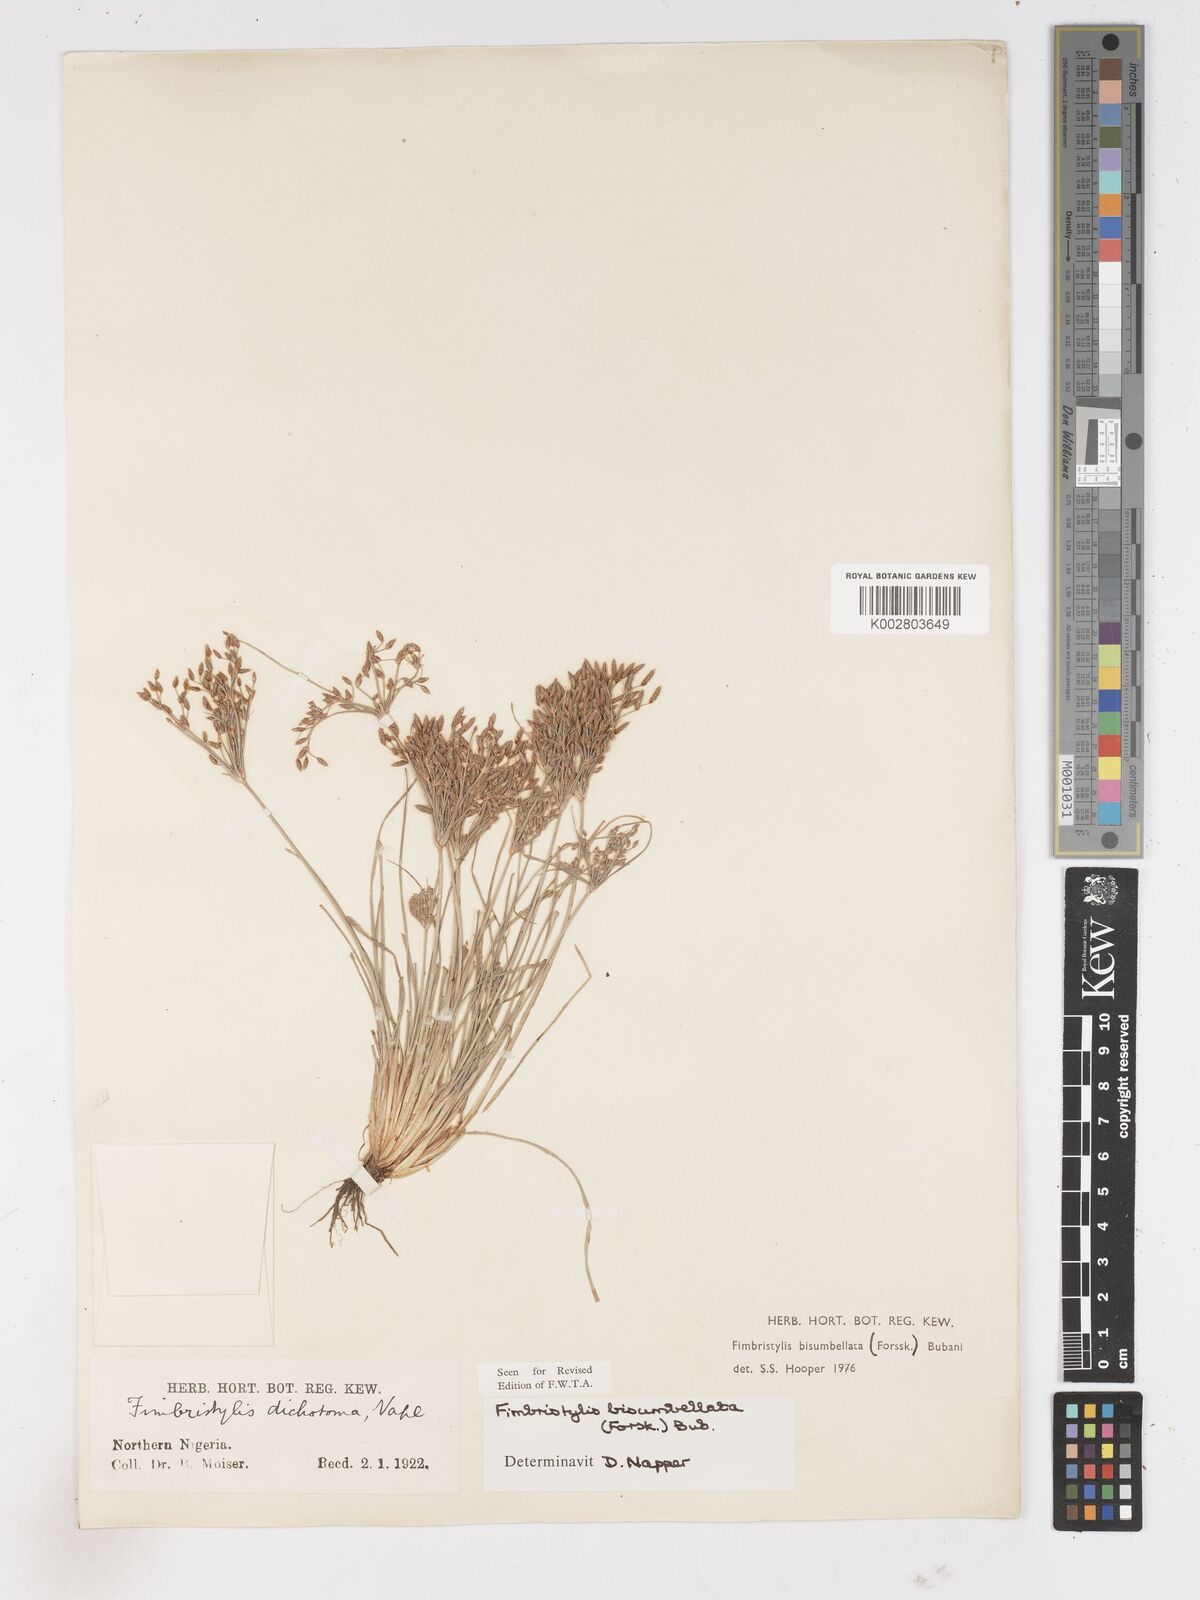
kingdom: Plantae
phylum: Tracheophyta
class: Liliopsida
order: Poales
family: Cyperaceae
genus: Fimbristylis
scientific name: Fimbristylis bisumbellata
